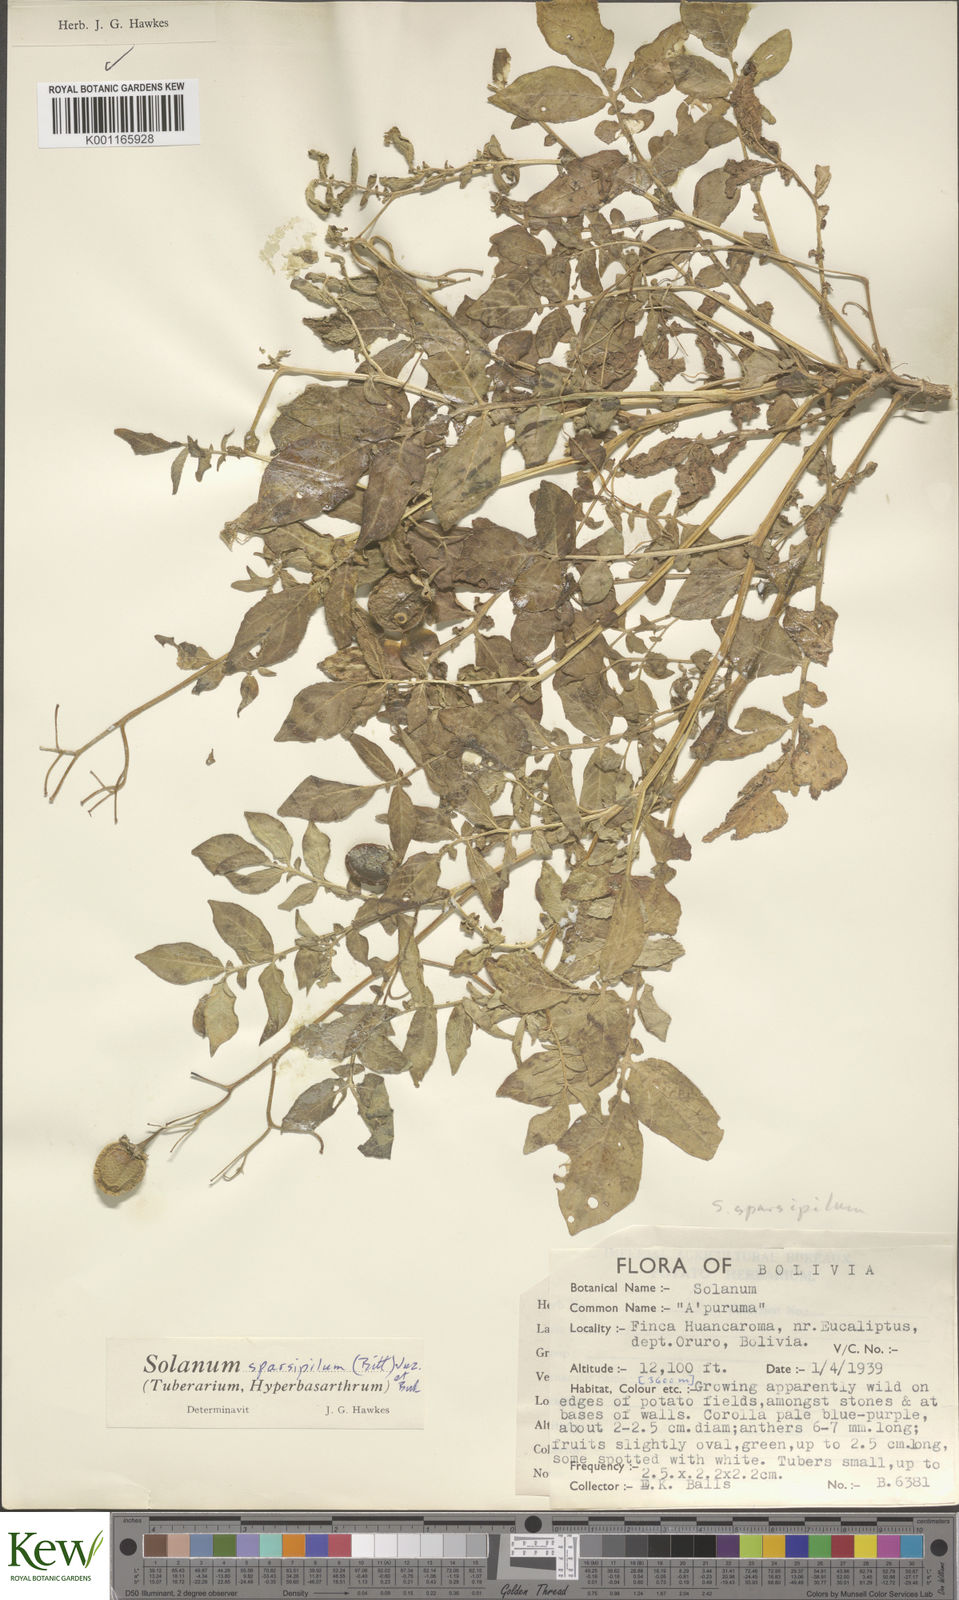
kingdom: Plantae
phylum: Tracheophyta
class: Magnoliopsida
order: Solanales
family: Solanaceae
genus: Solanum
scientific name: Solanum brevicaule
